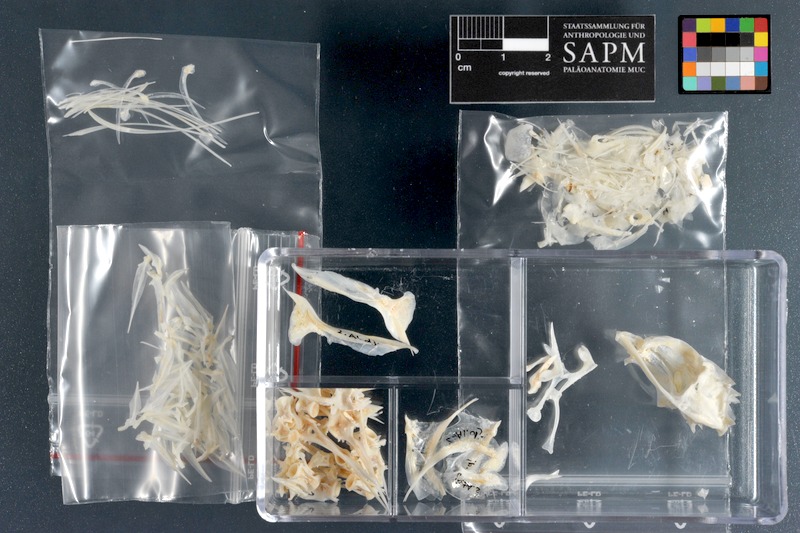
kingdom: Animalia
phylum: Chordata
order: Perciformes
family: Carangidae
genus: Alepes
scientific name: Alepes djedaba
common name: Shrimp scad
